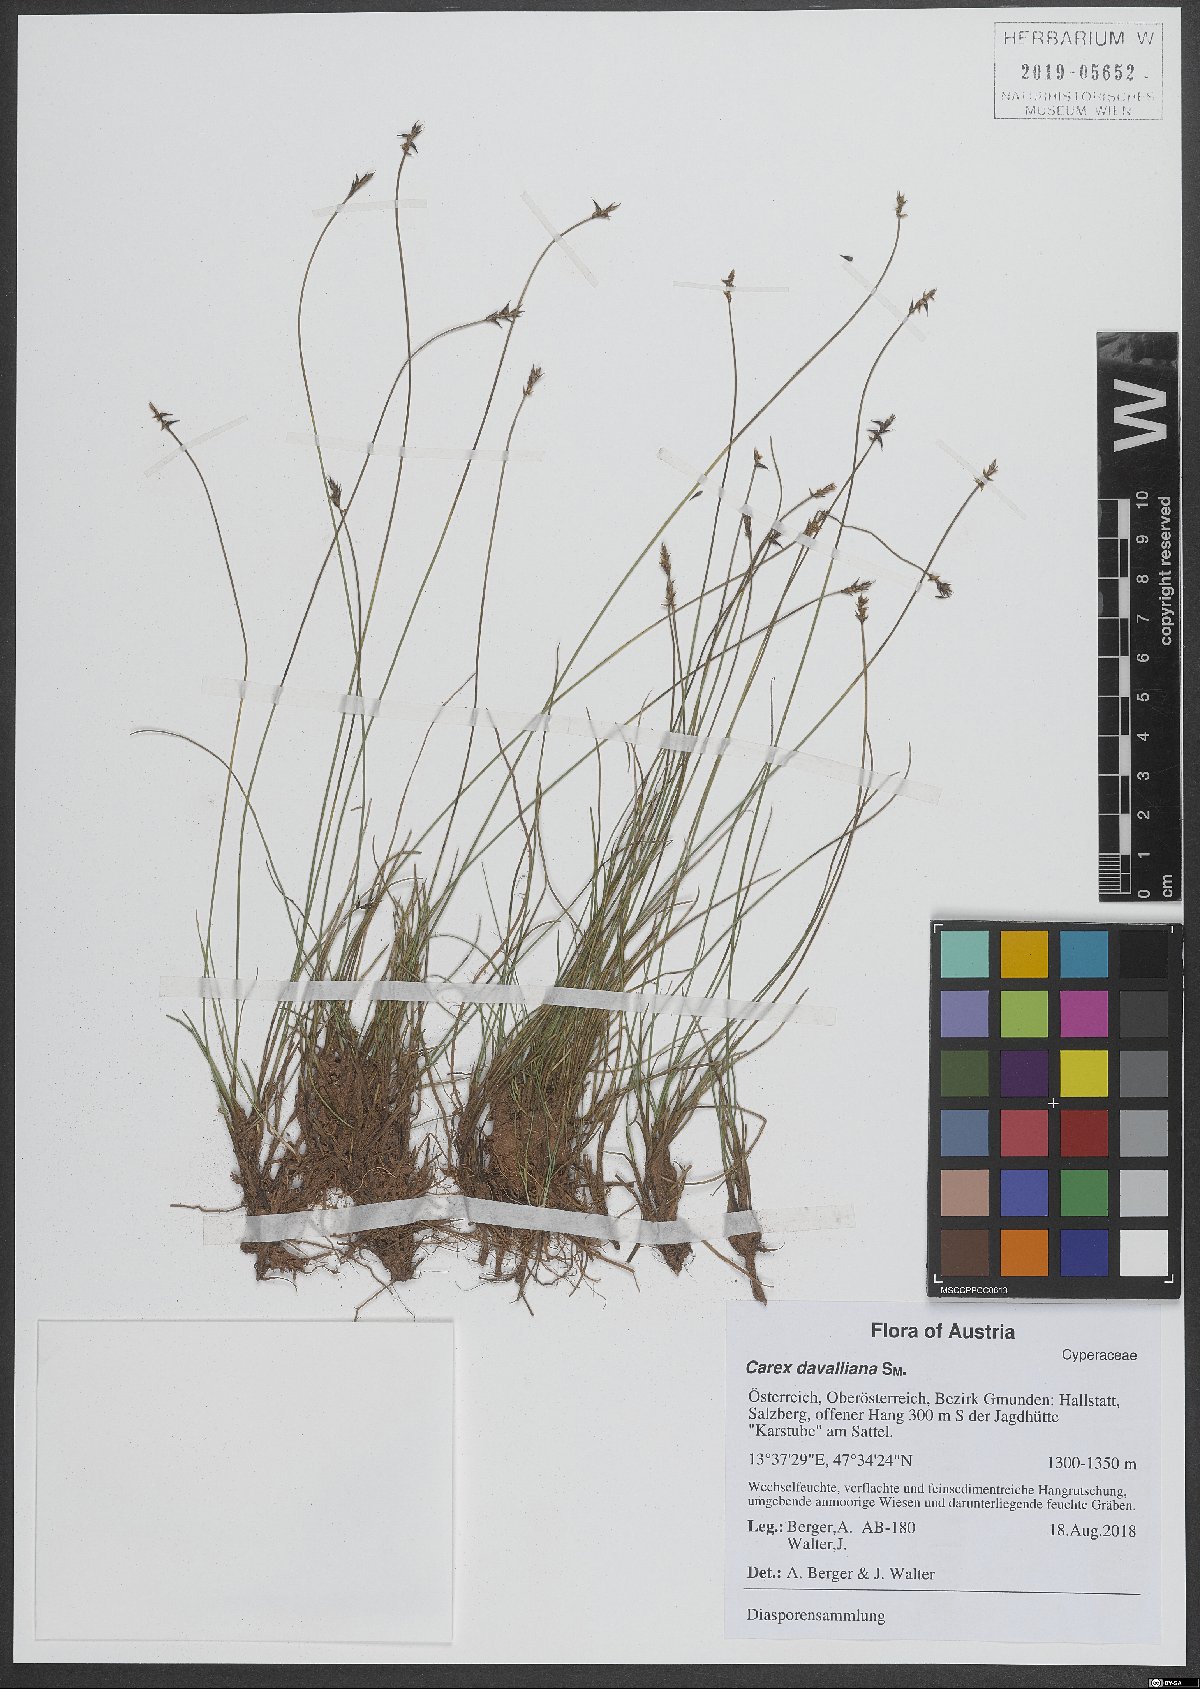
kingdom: Plantae
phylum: Tracheophyta
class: Liliopsida
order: Poales
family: Cyperaceae
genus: Carex
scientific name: Carex davalliana
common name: Davall's sedge
